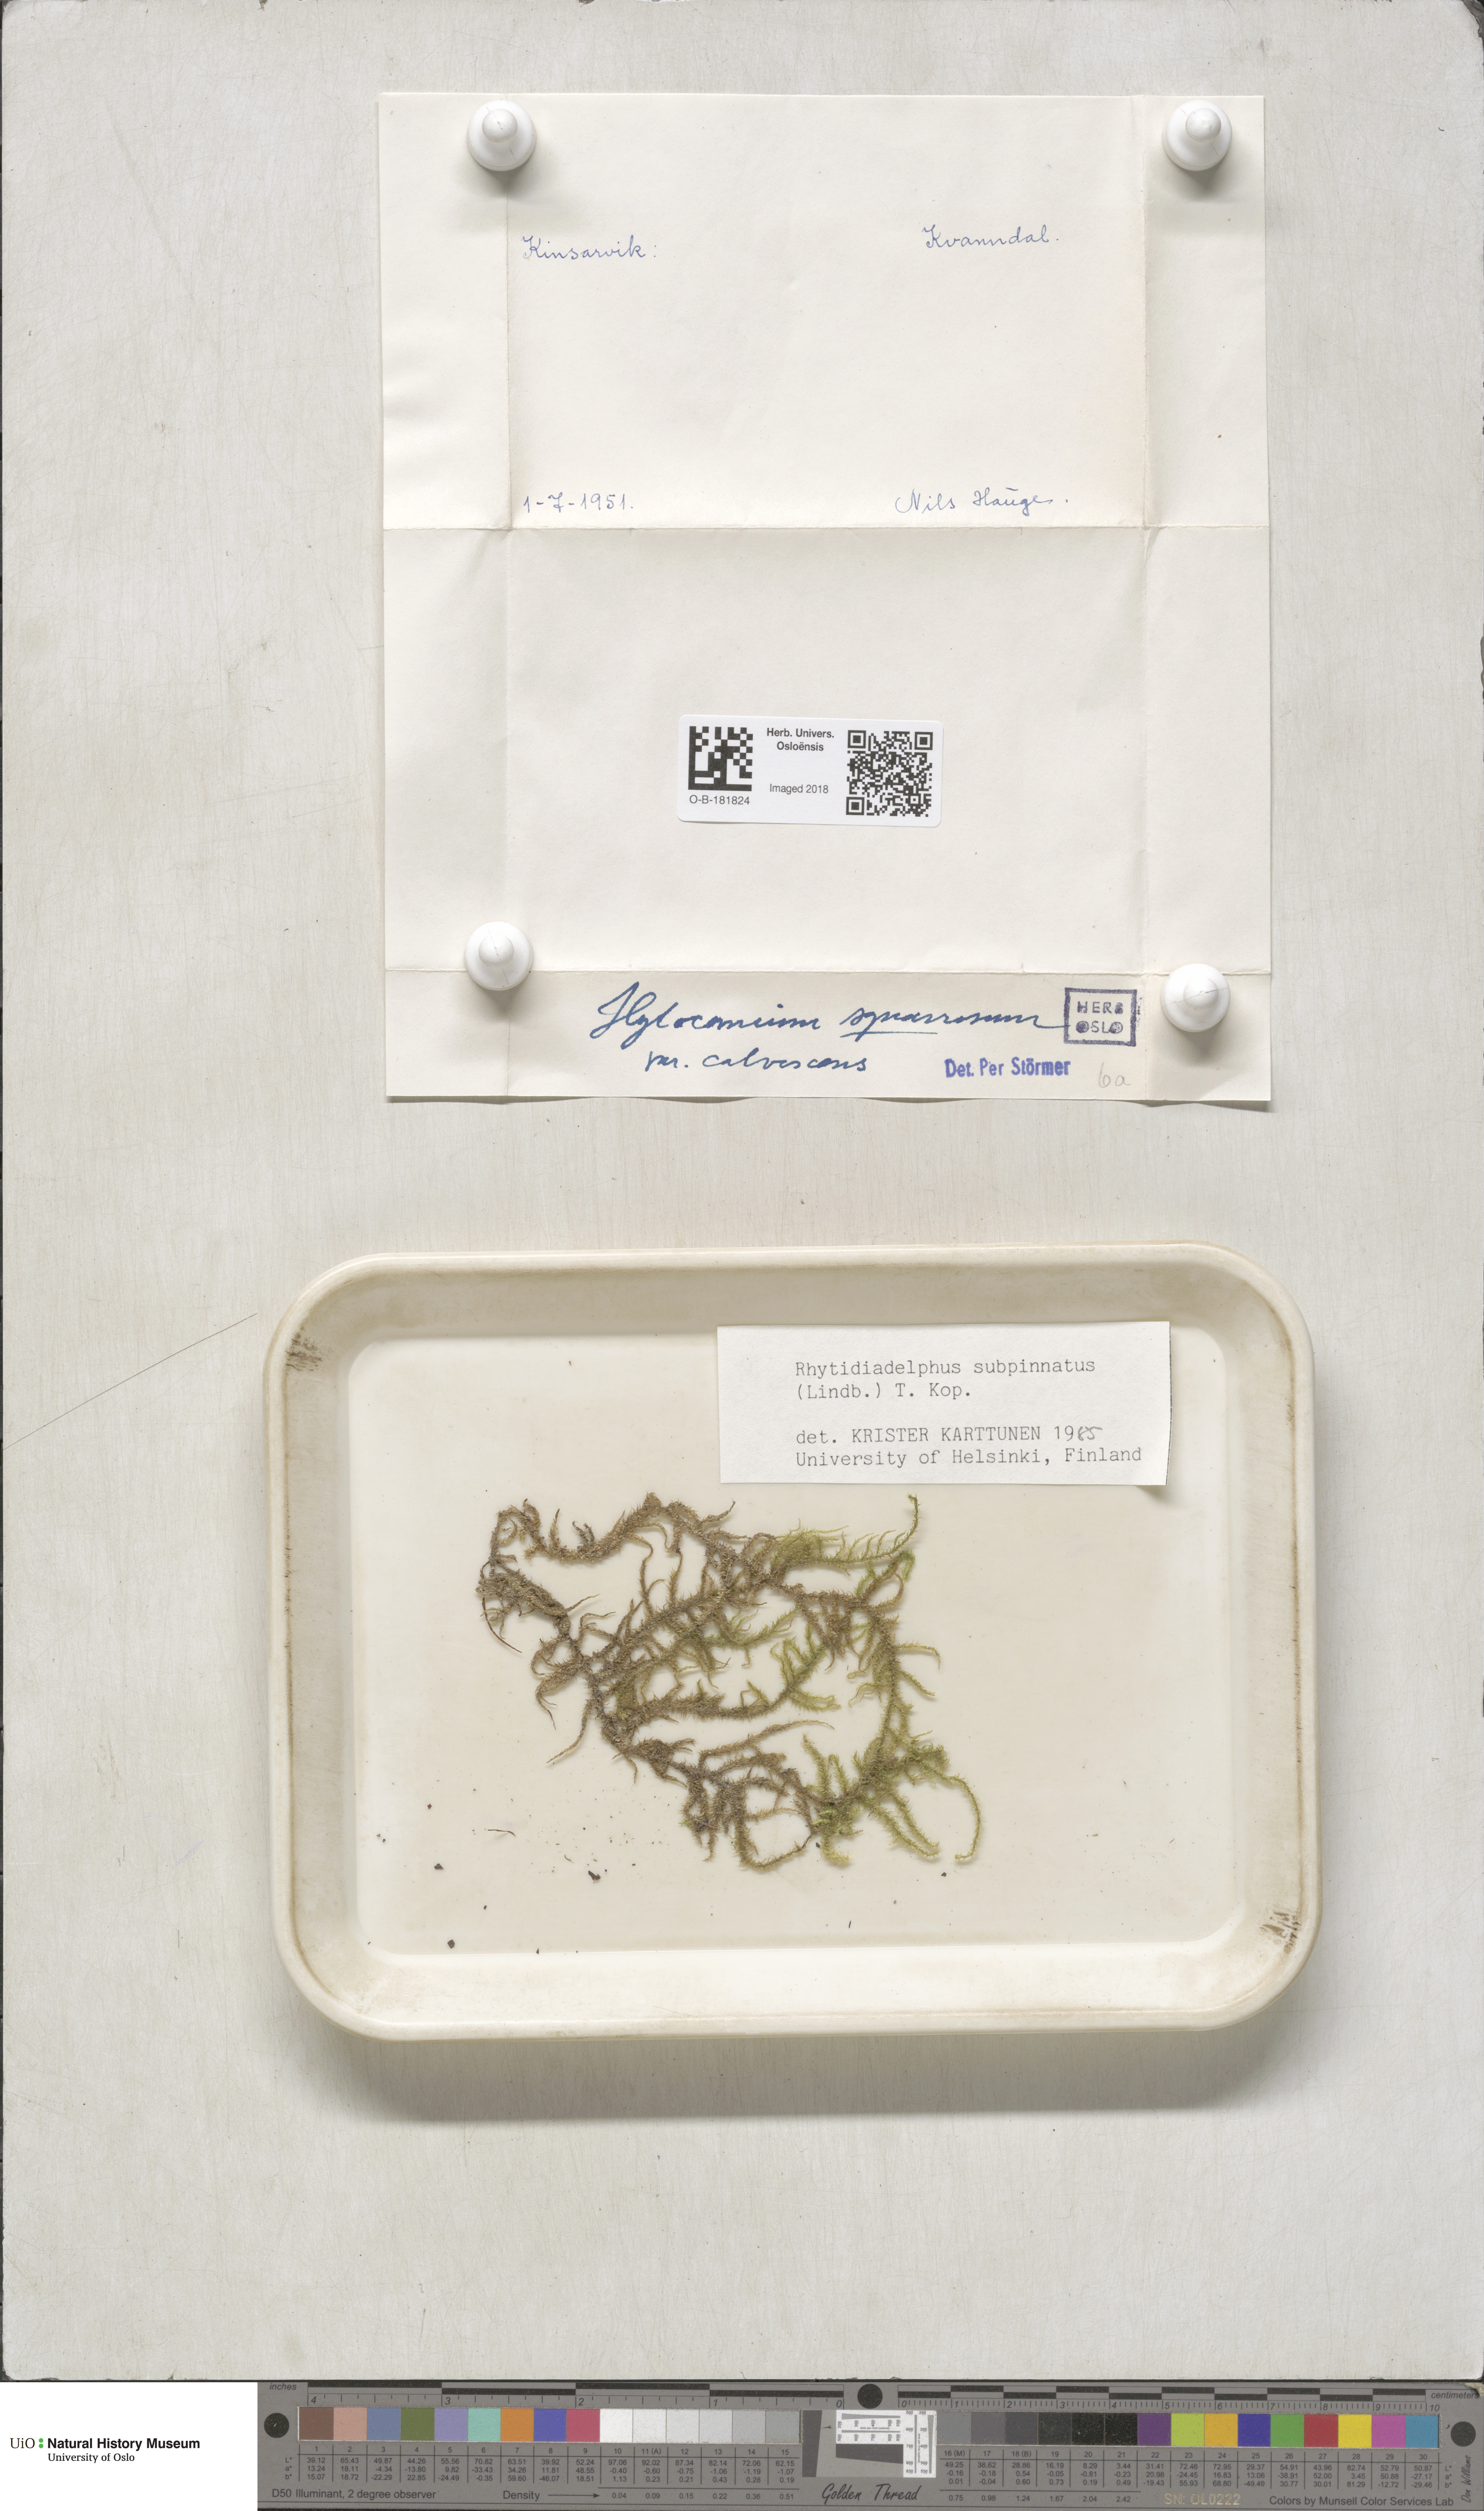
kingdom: Plantae
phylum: Bryophyta
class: Bryopsida
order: Hypnales
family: Hylocomiaceae
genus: Rhytidiadelphus
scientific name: Rhytidiadelphus subpinnatus
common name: Subpinnate gooseneck moss
